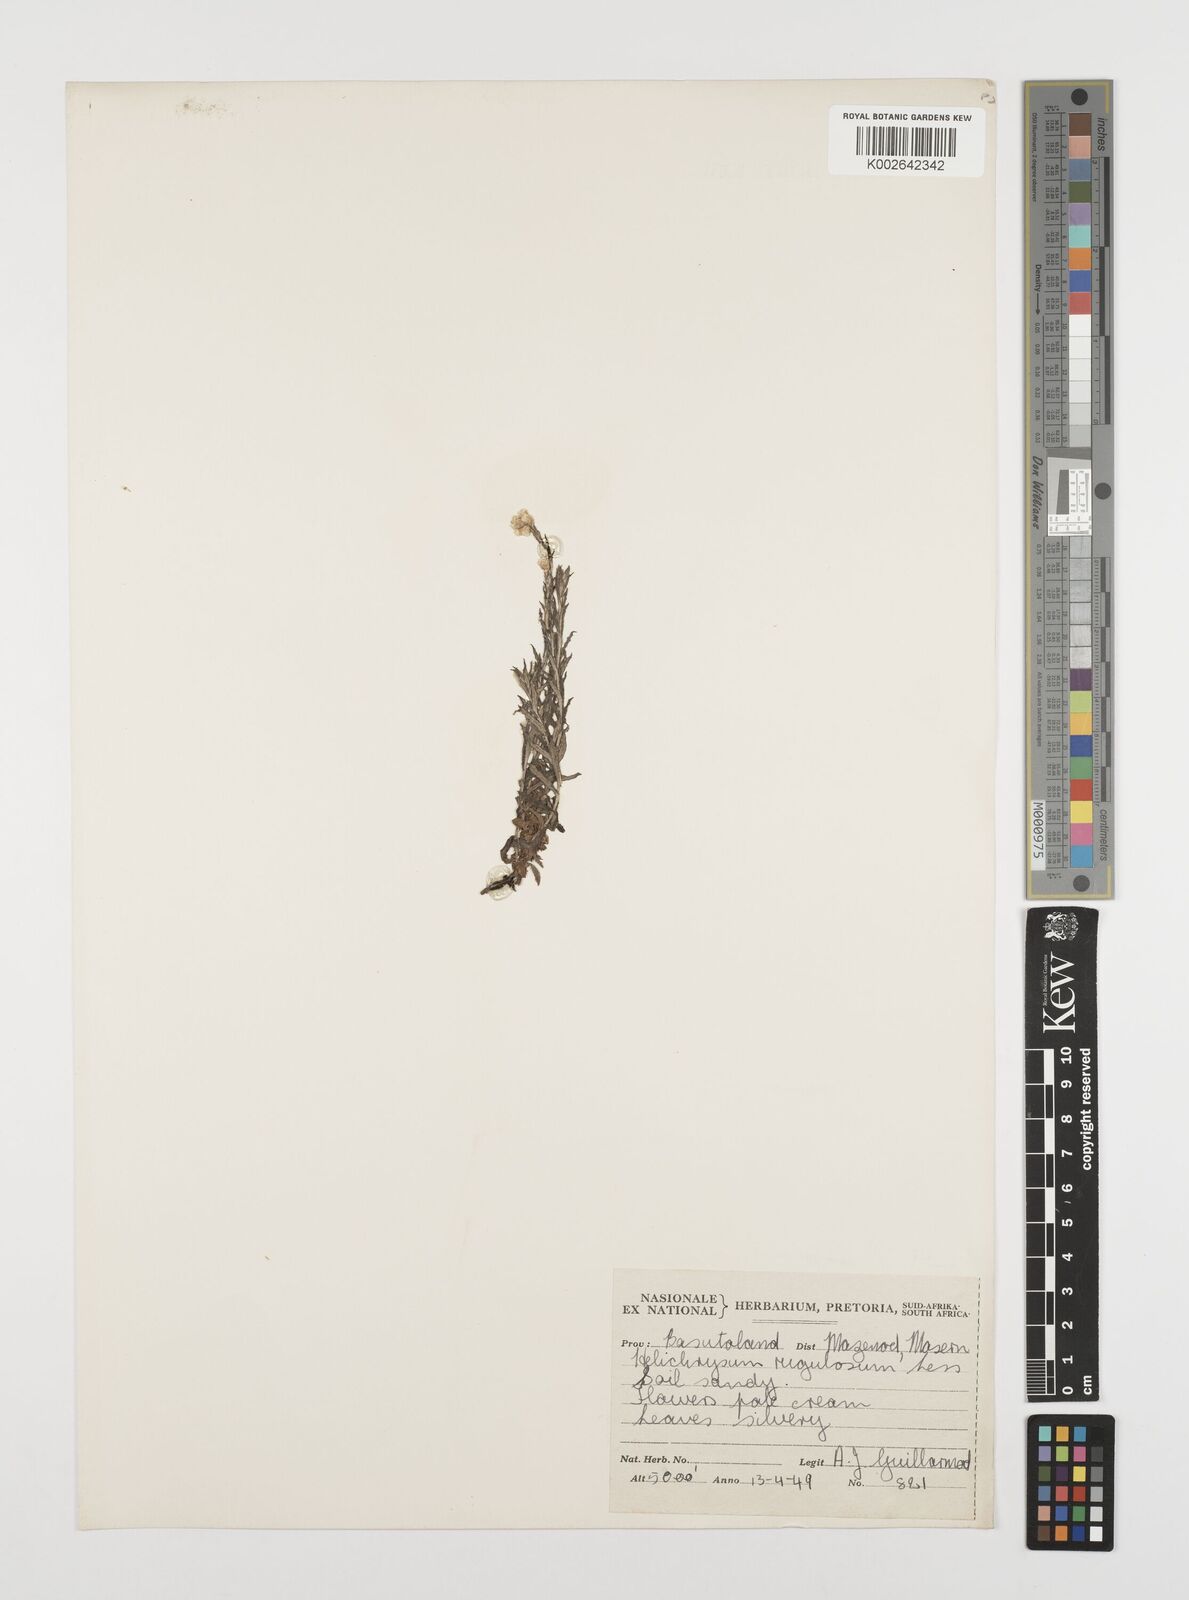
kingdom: Plantae
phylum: Tracheophyta
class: Magnoliopsida
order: Asterales
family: Asteraceae
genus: Helichrysum
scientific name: Helichrysum rugulosum
